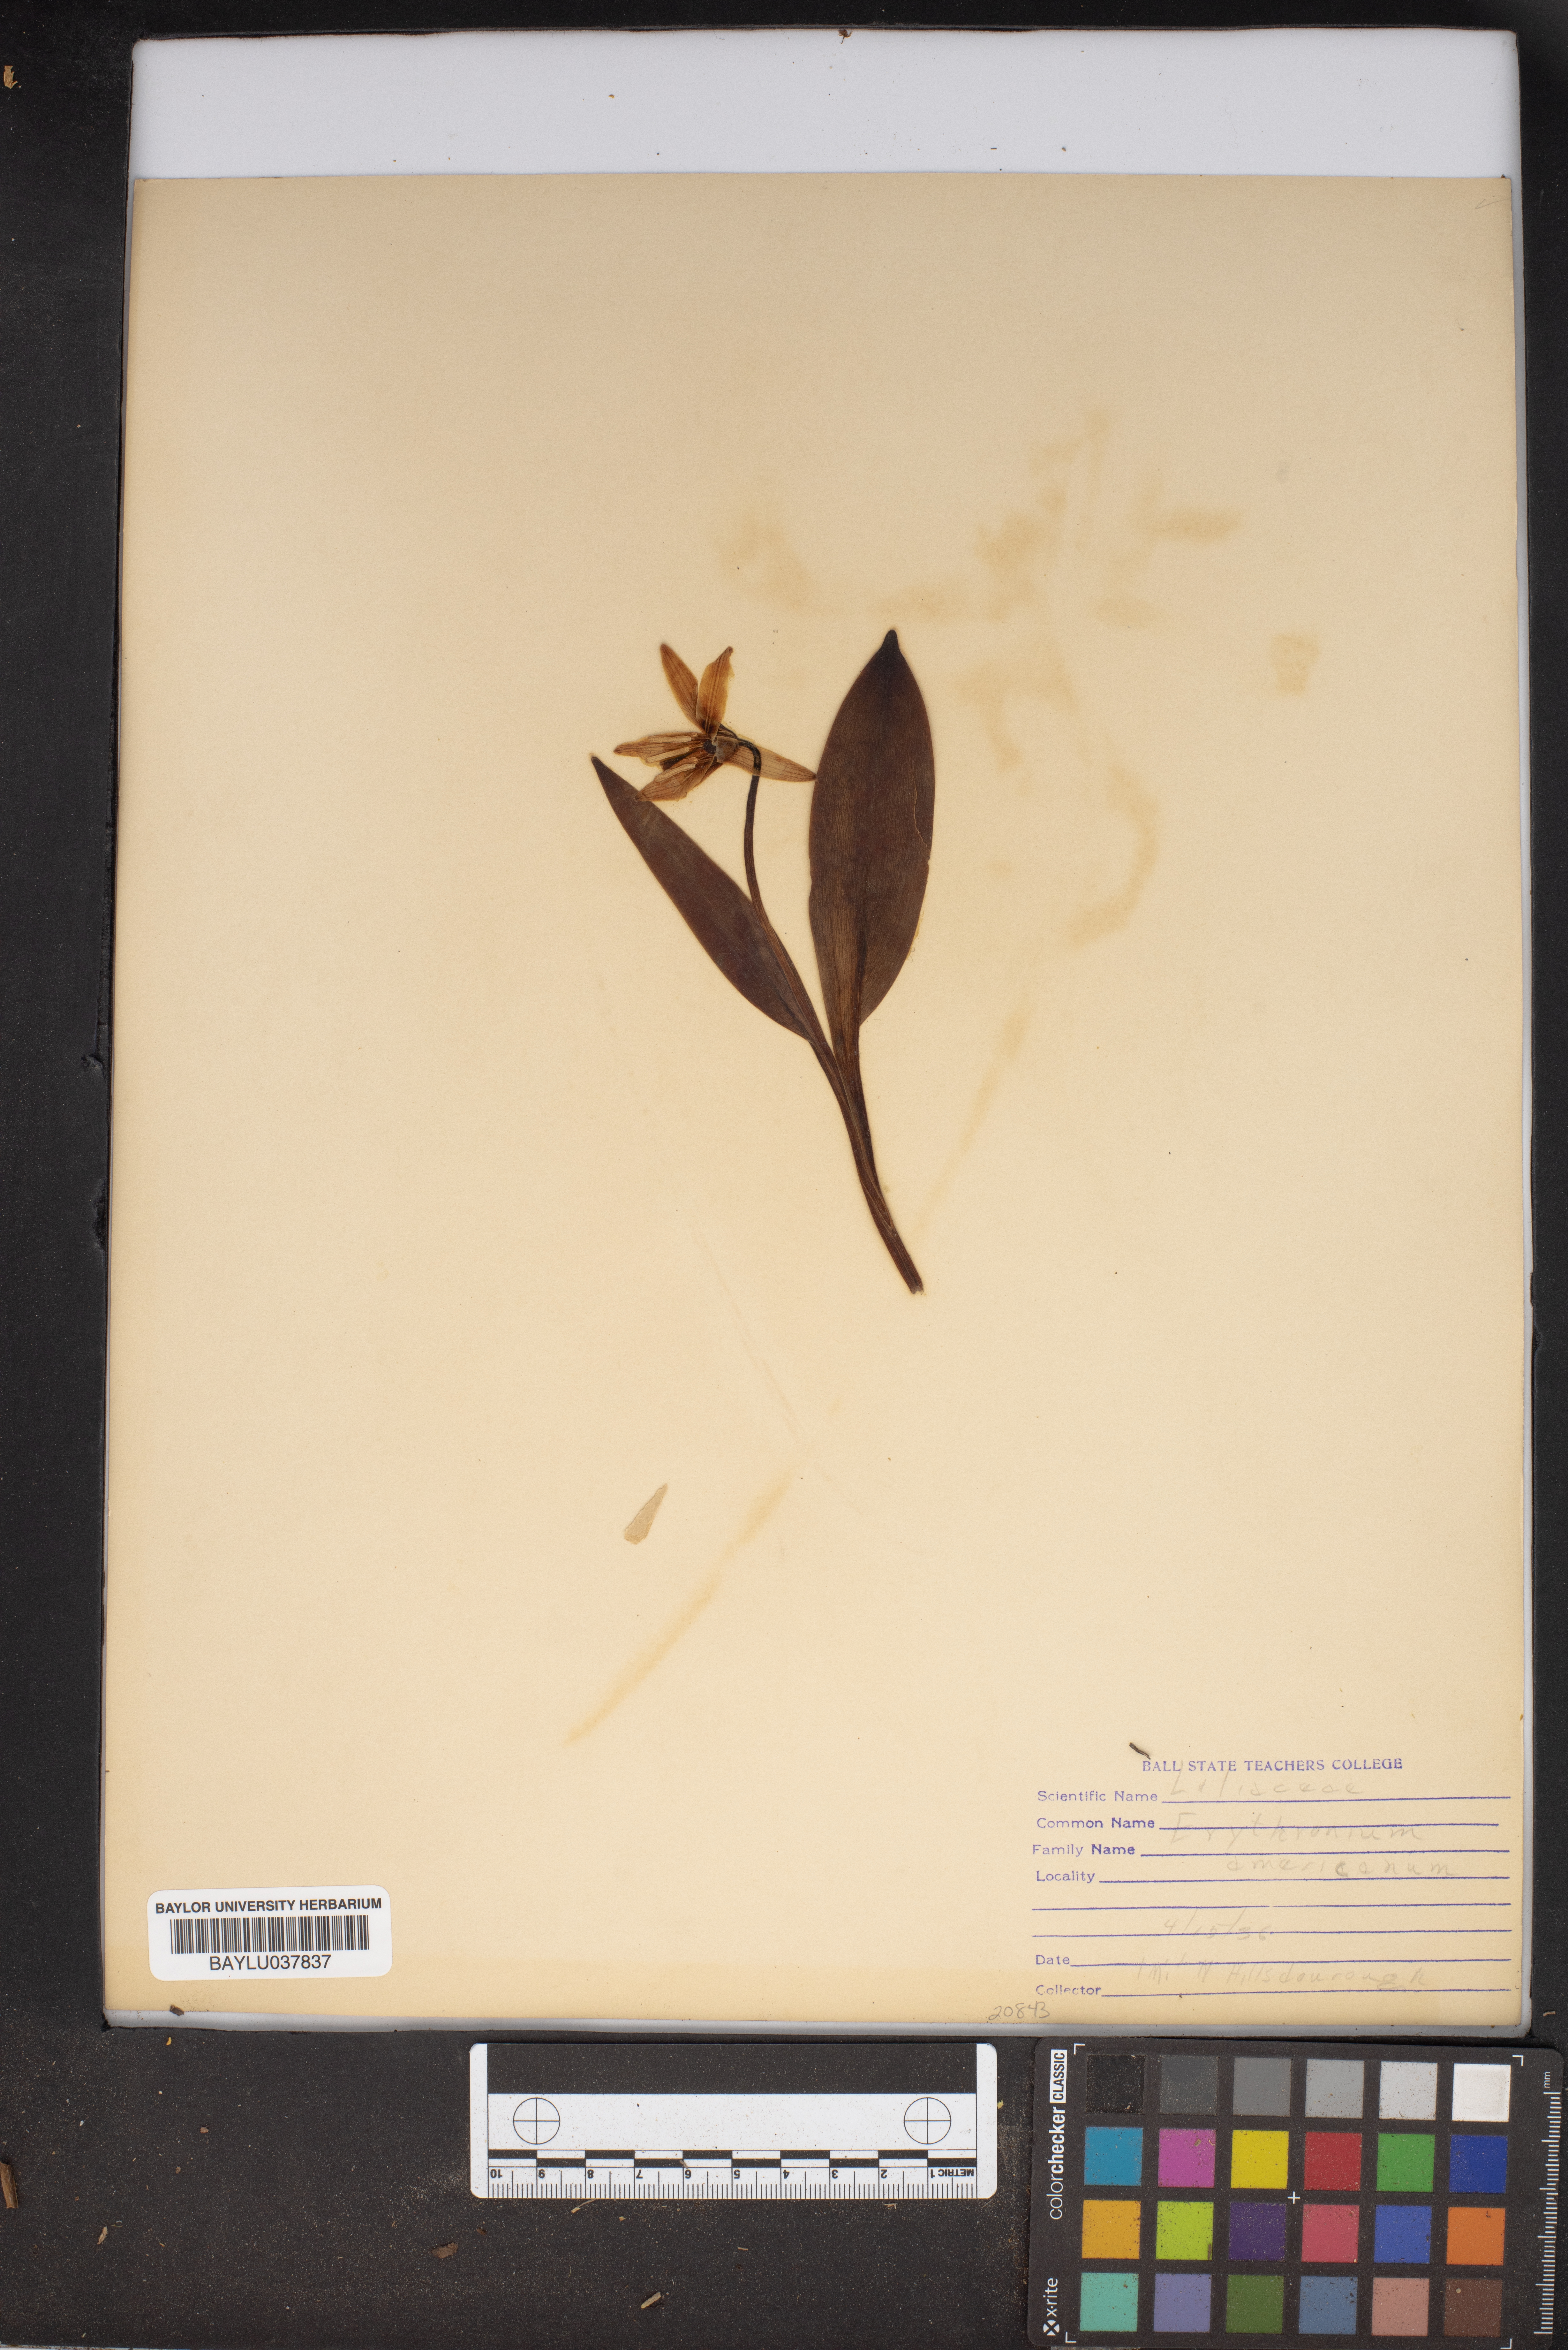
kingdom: Plantae
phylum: Tracheophyta
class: Liliopsida
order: Liliales
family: Liliaceae
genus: Erythronium
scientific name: Erythronium americanum
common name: Yellow adder's-tongue
